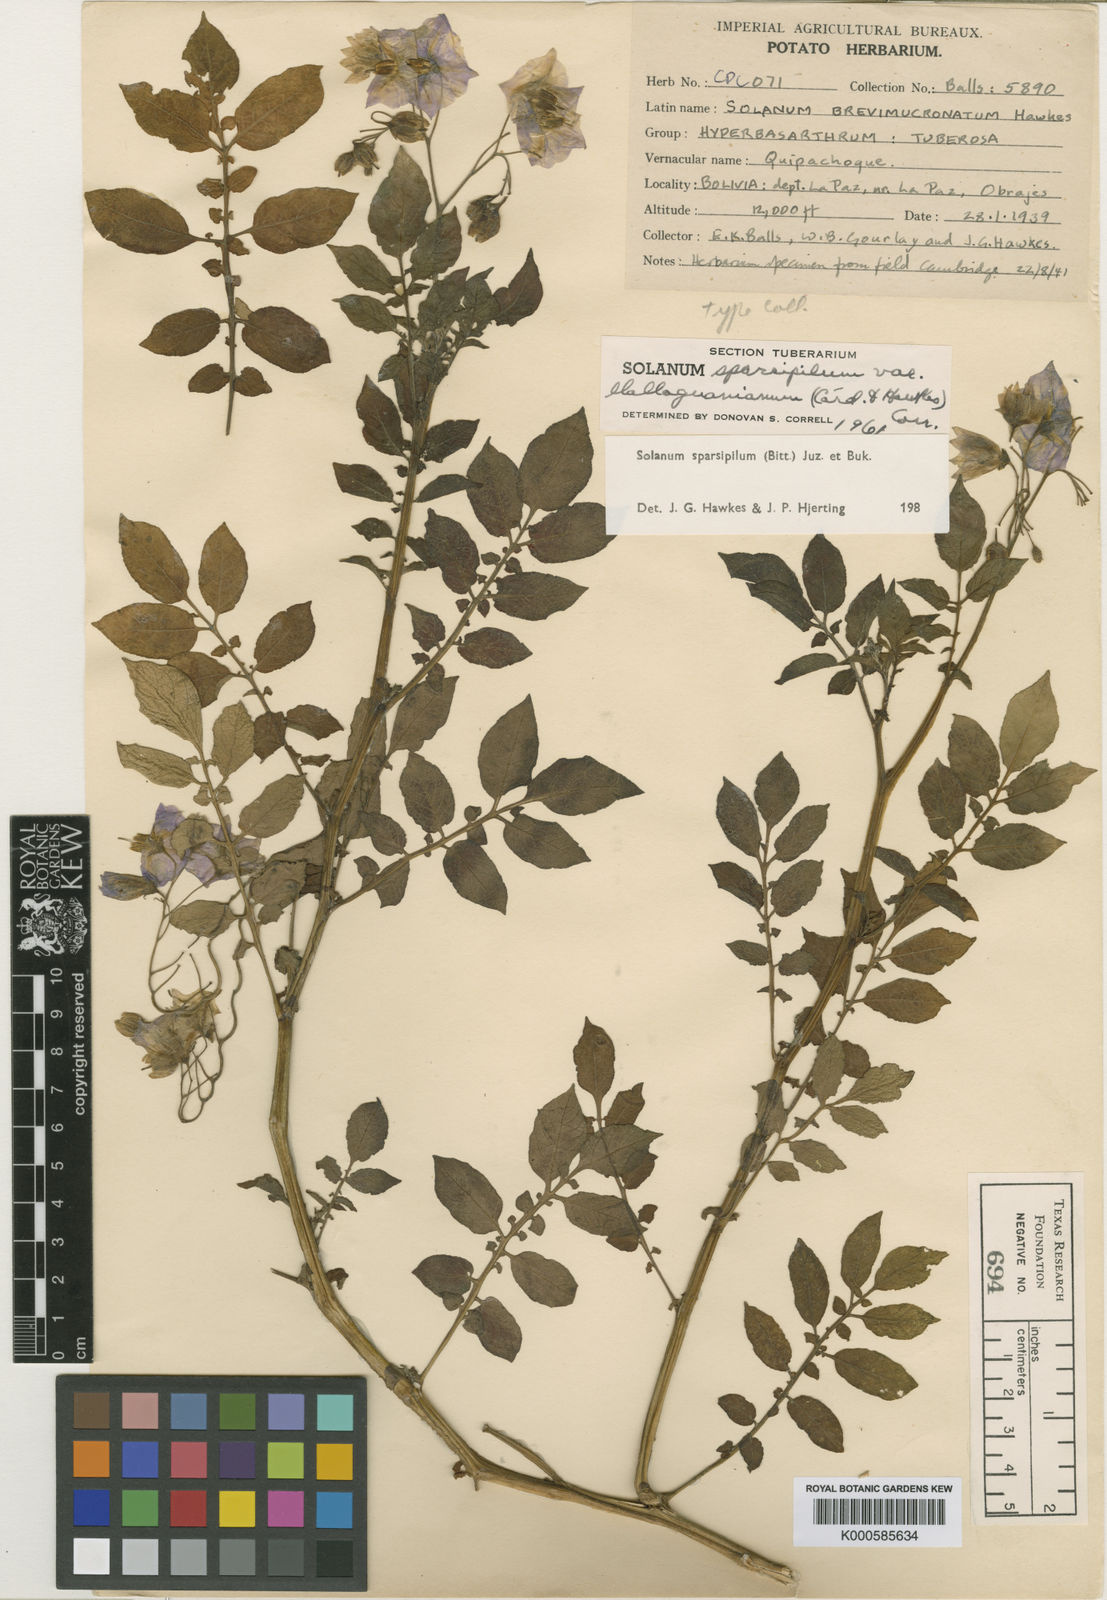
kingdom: Plantae
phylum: Tracheophyta
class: Magnoliopsida
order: Solanales
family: Solanaceae
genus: Solanum
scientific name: Solanum brevicaule
